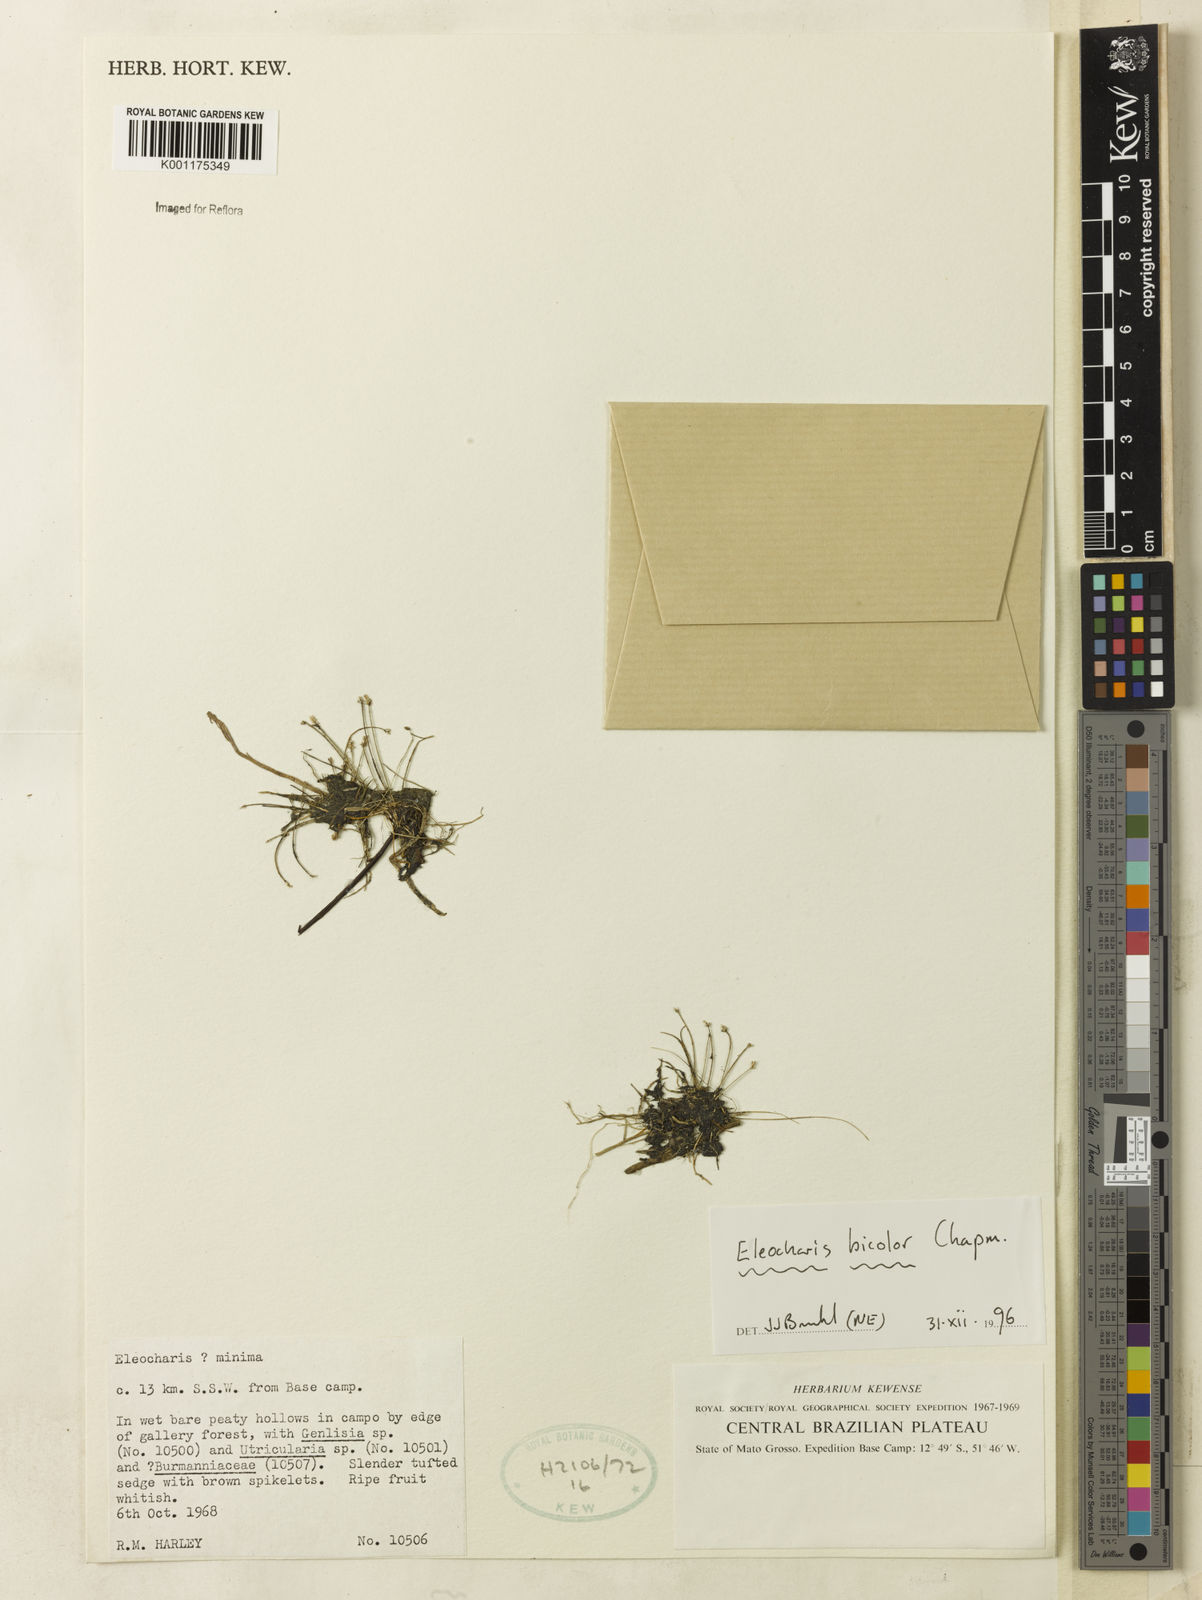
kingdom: Plantae
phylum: Tracheophyta
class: Liliopsida
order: Poales
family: Cyperaceae
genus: Eleocharis
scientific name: Eleocharis minima
